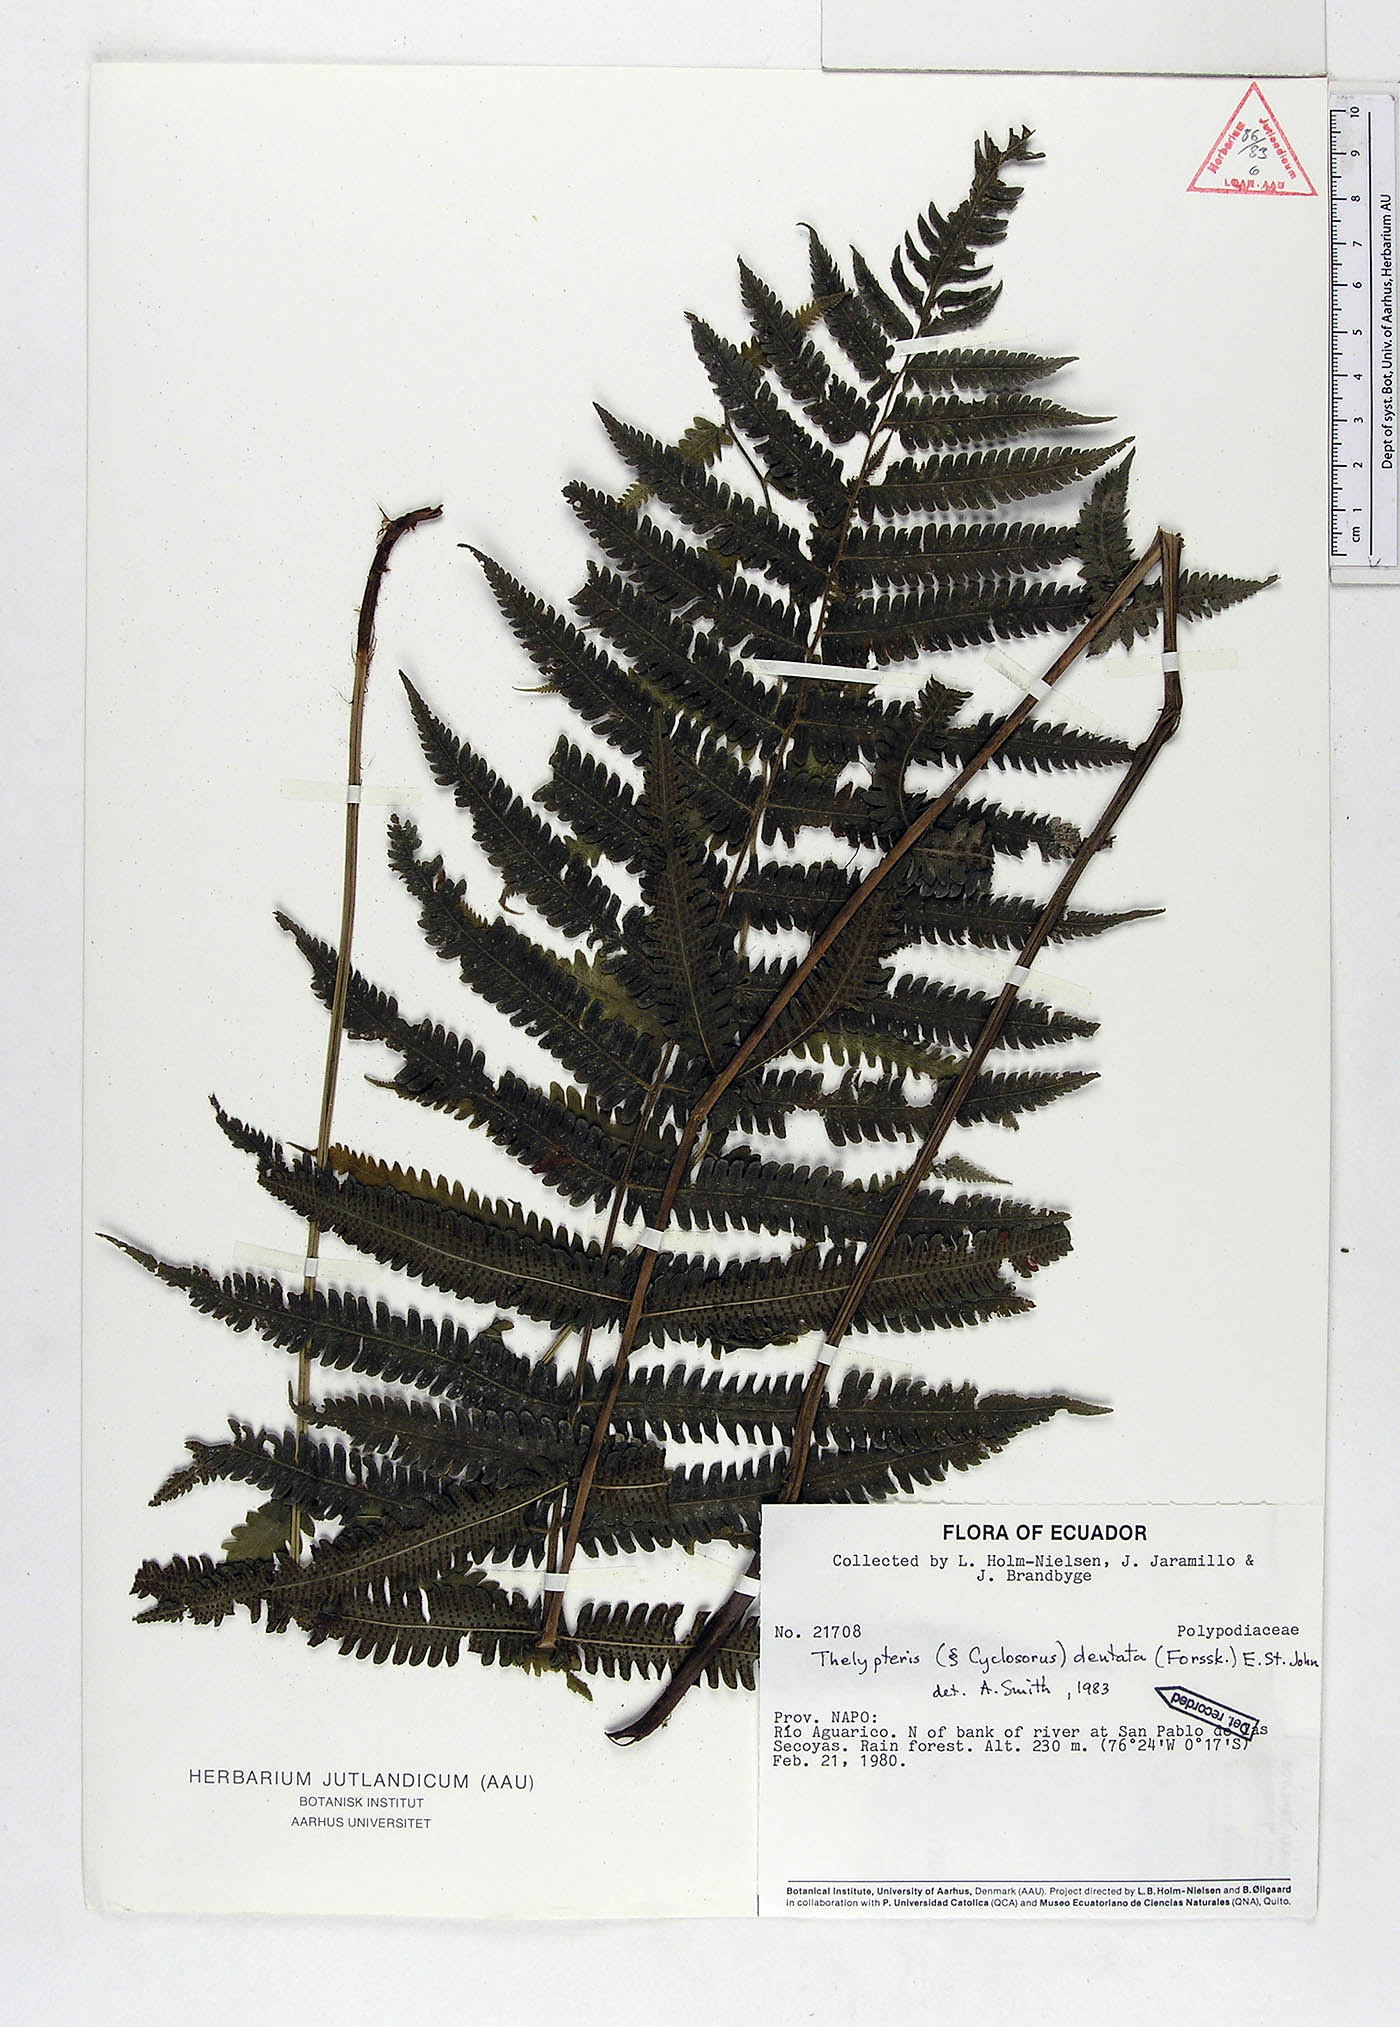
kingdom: Plantae
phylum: Tracheophyta
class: Polypodiopsida
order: Polypodiales
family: Thelypteridaceae
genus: Christella
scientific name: Christella dentata
